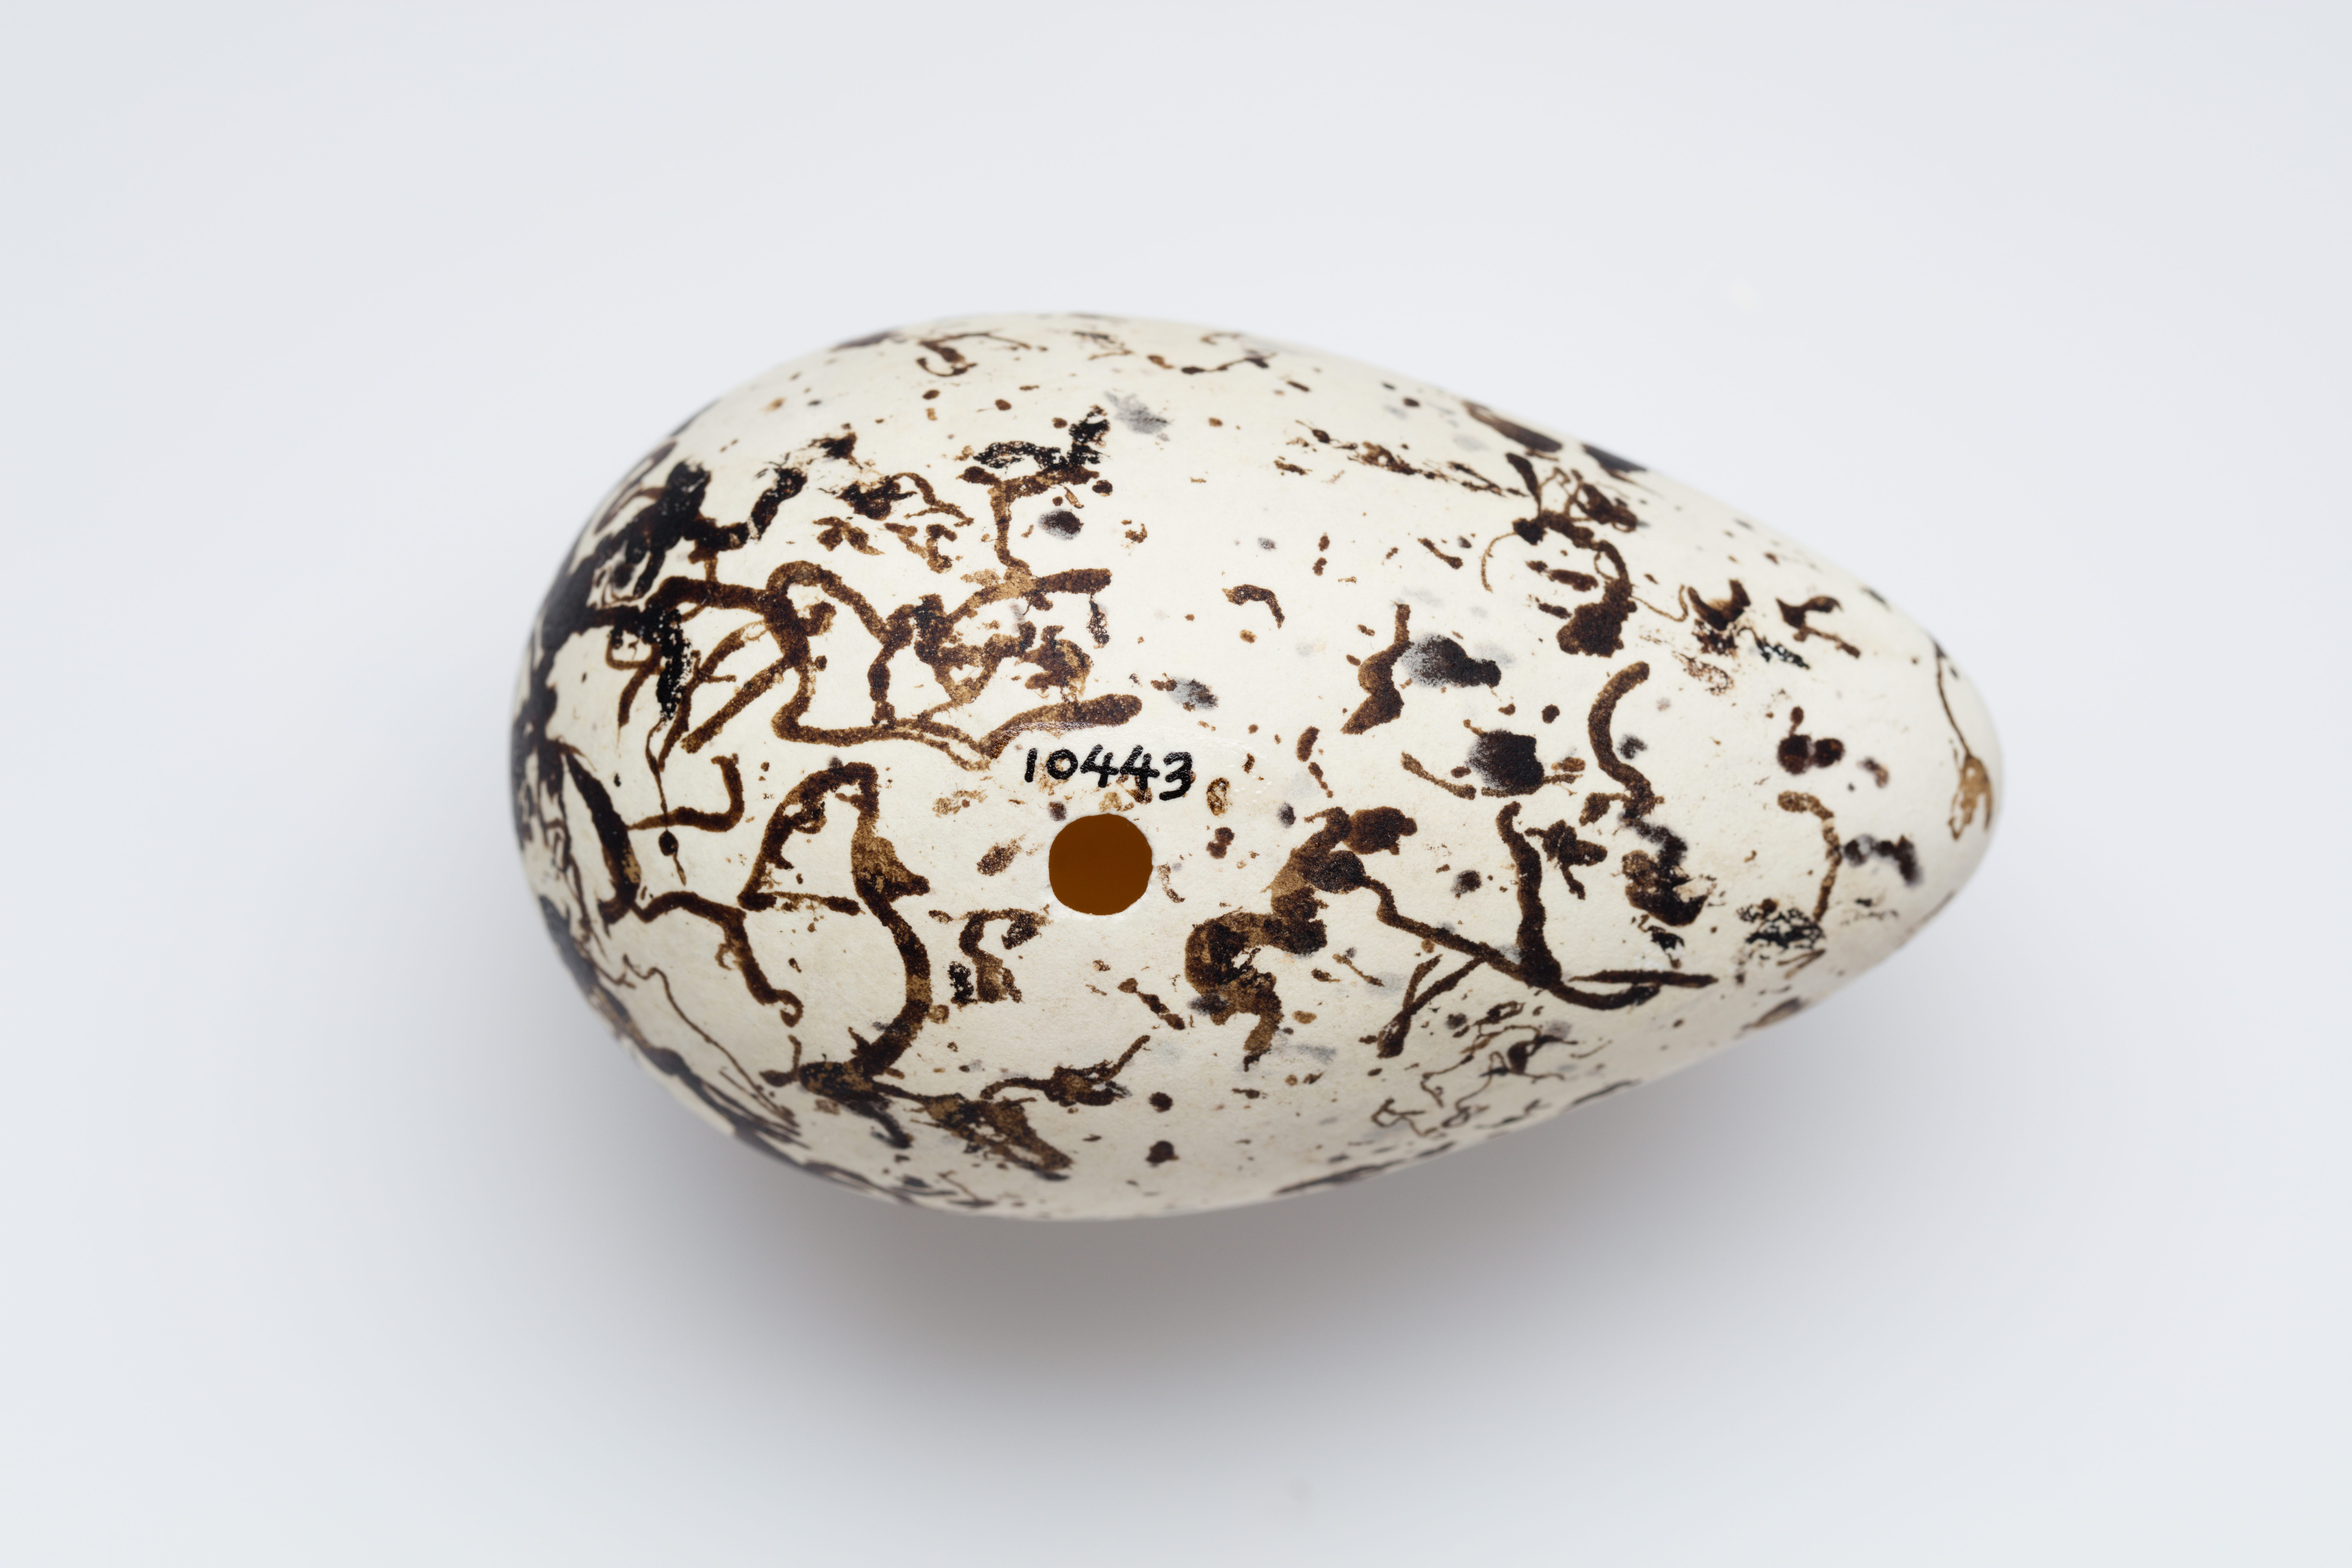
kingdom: Animalia
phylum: Chordata
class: Aves
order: Charadriiformes
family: Alcidae
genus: Uria
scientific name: Uria aalge
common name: Common murre
